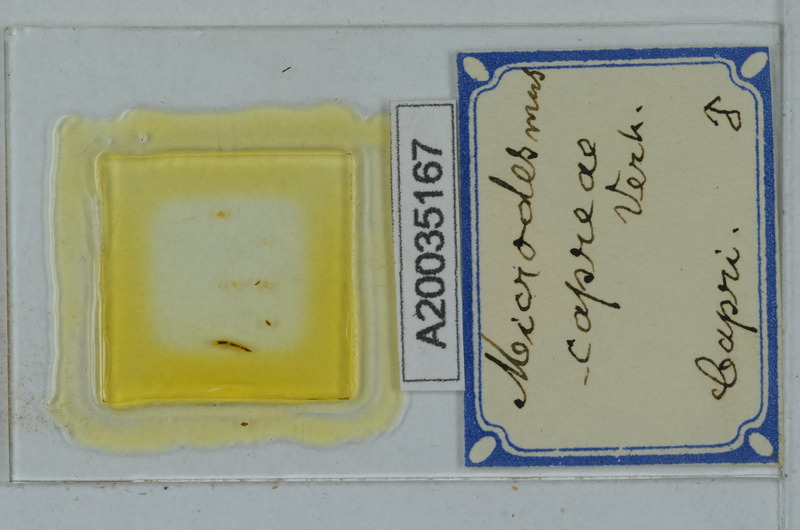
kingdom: Animalia
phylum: Arthropoda
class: Diplopoda
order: Polydesmida
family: Paradoxosomatidae
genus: Metonomastus
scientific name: Metonomastus capreae
